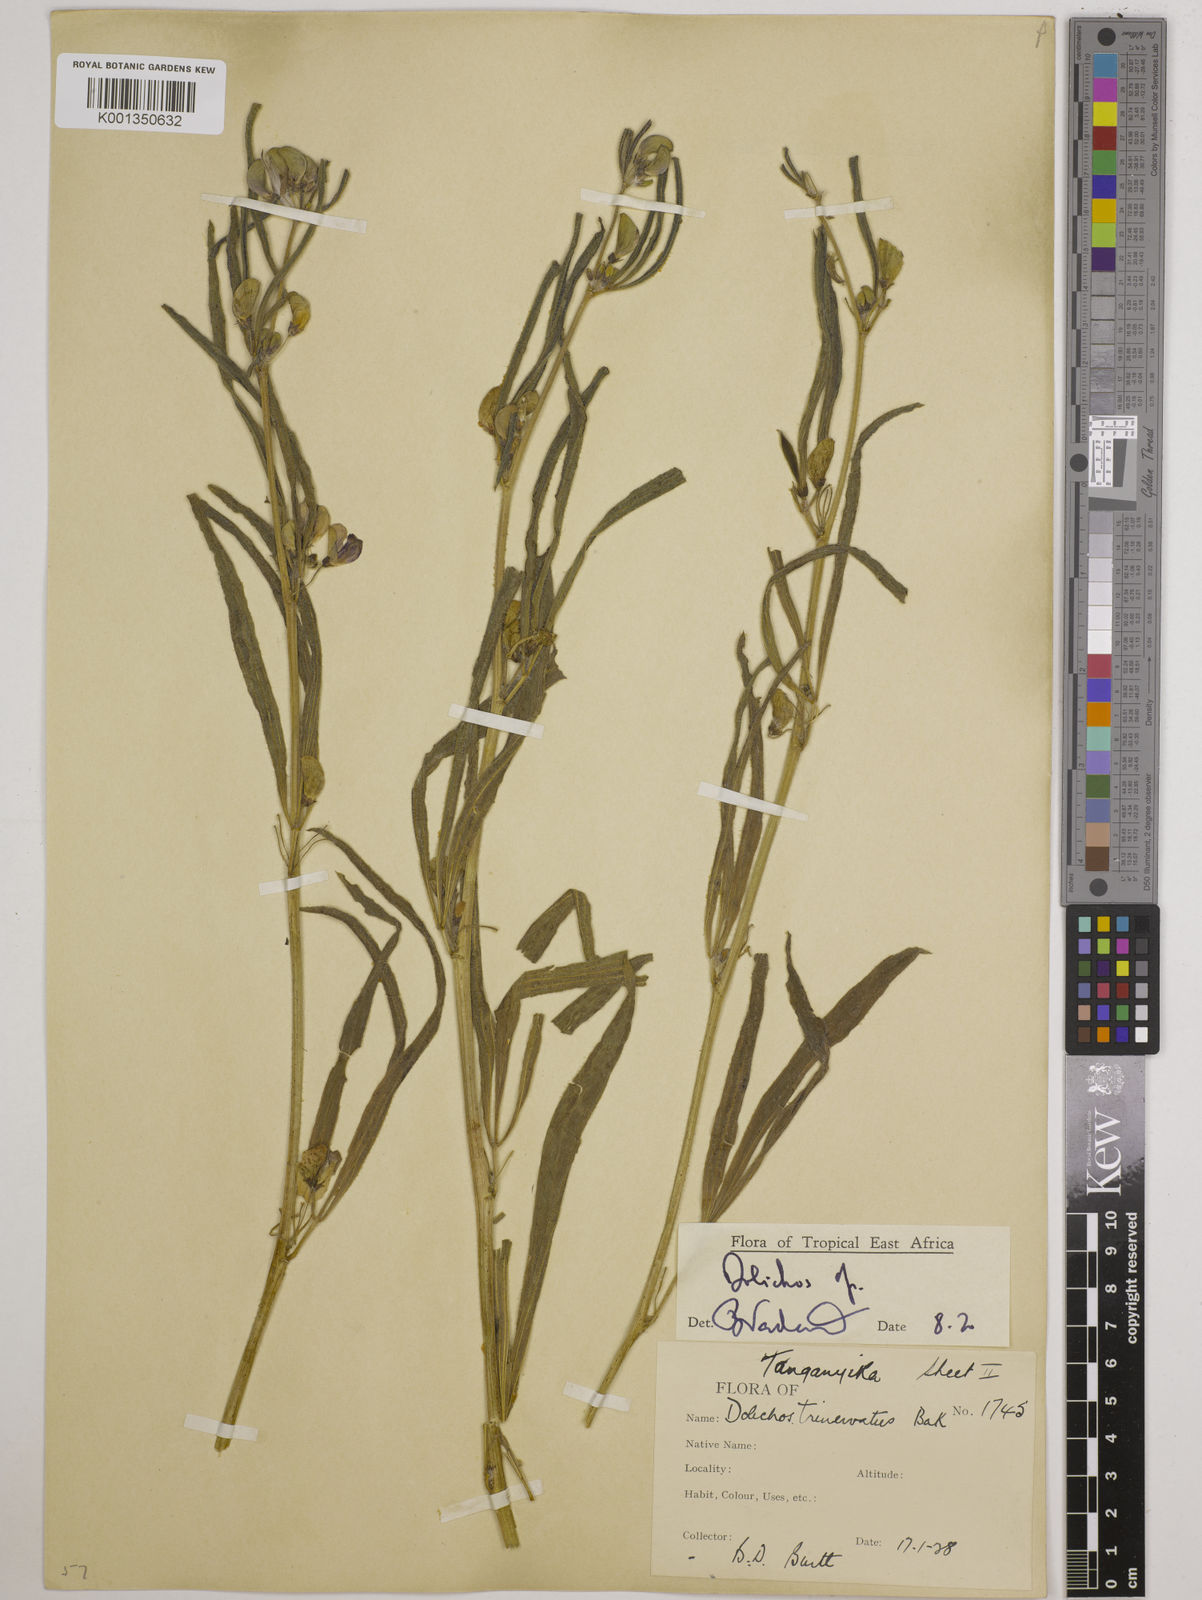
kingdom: Plantae
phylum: Tracheophyta
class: Magnoliopsida
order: Fabales
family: Fabaceae
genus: Dolichos
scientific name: Dolichos trinervatus
